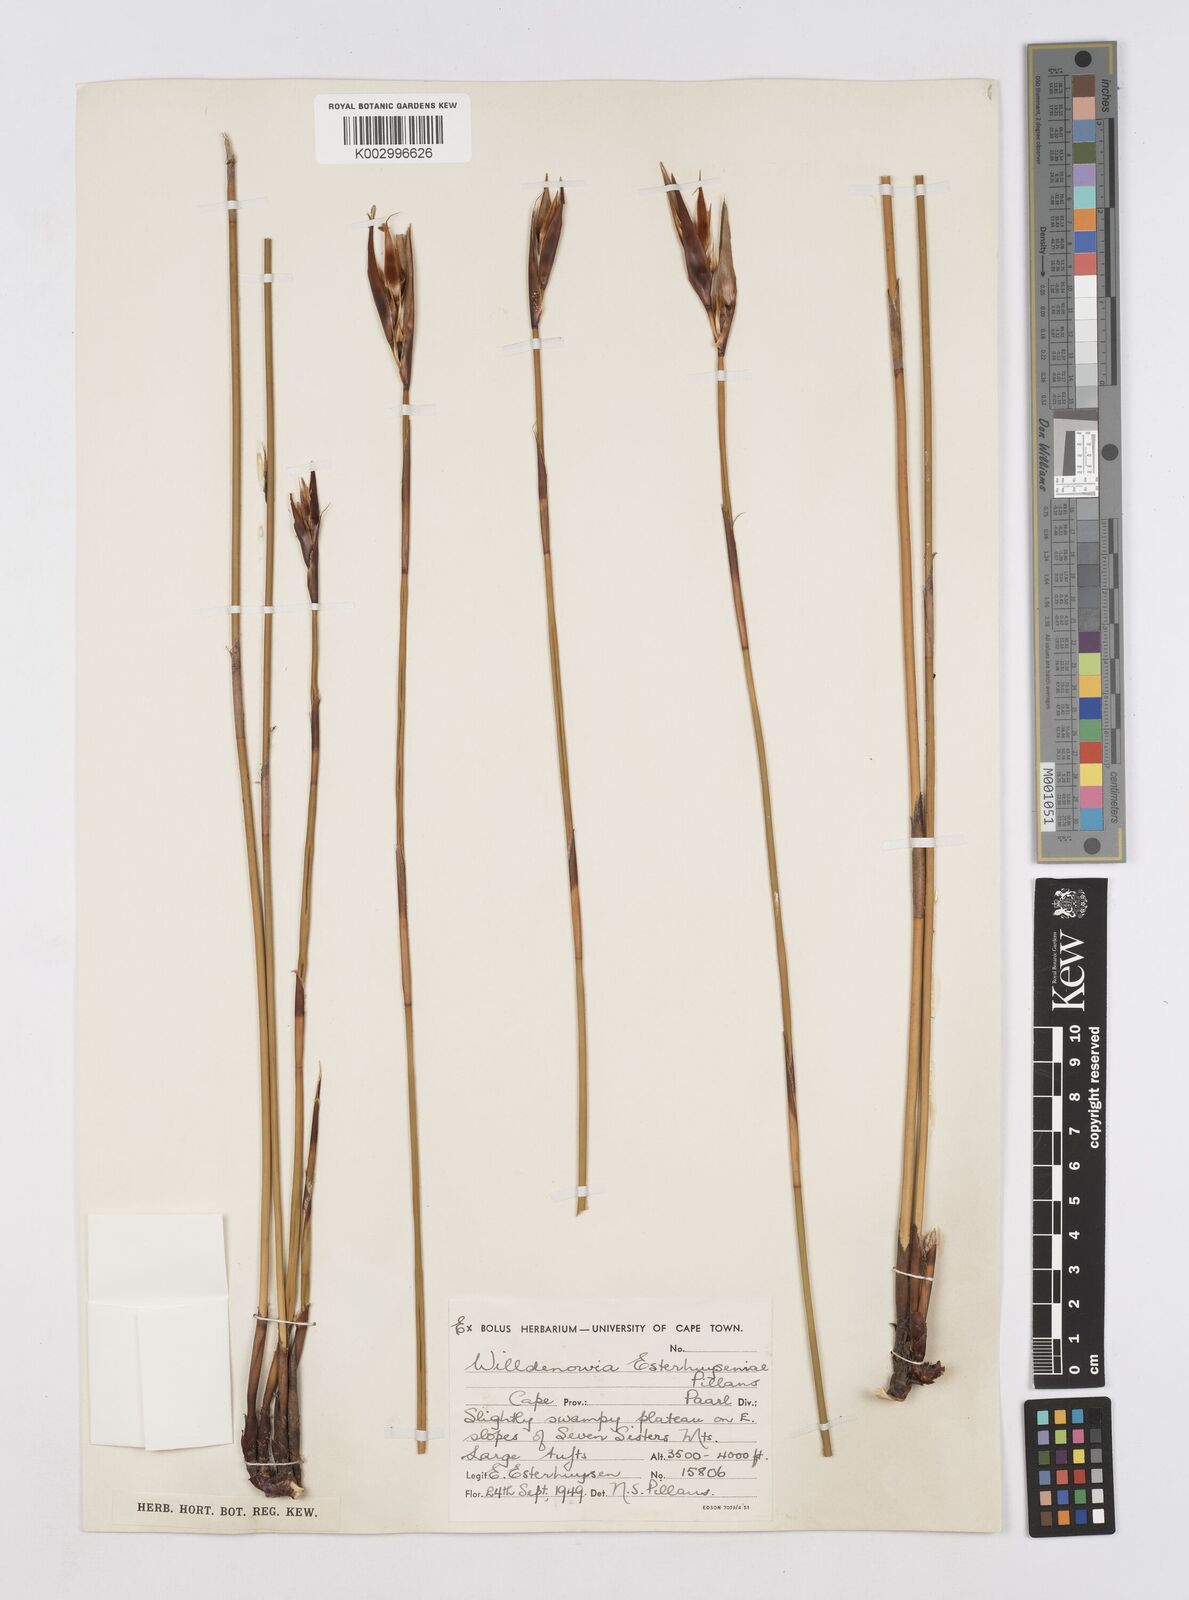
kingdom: Plantae
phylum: Tracheophyta
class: Liliopsida
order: Poales
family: Restionaceae
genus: Ceratocaryum
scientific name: Ceratocaryum fimbriatum
